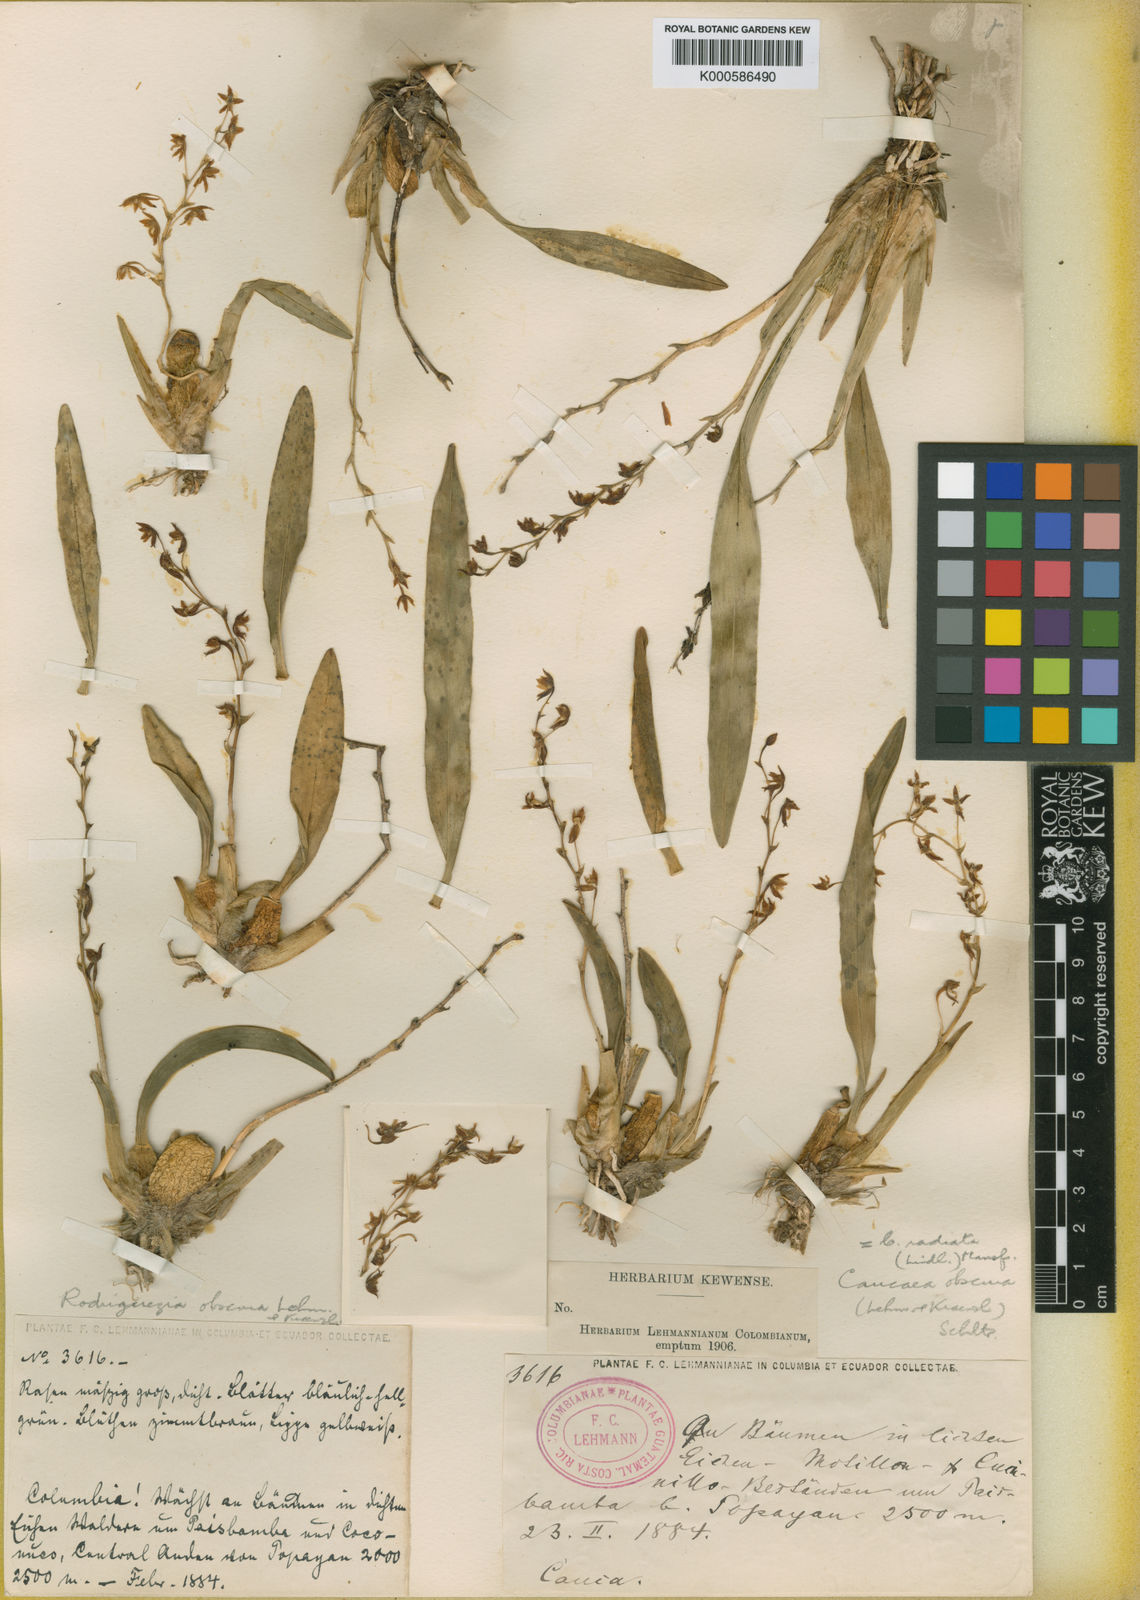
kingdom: Plantae
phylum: Tracheophyta
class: Liliopsida
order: Asparagales
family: Orchidaceae
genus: Caucaea
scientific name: Caucaea radiata
